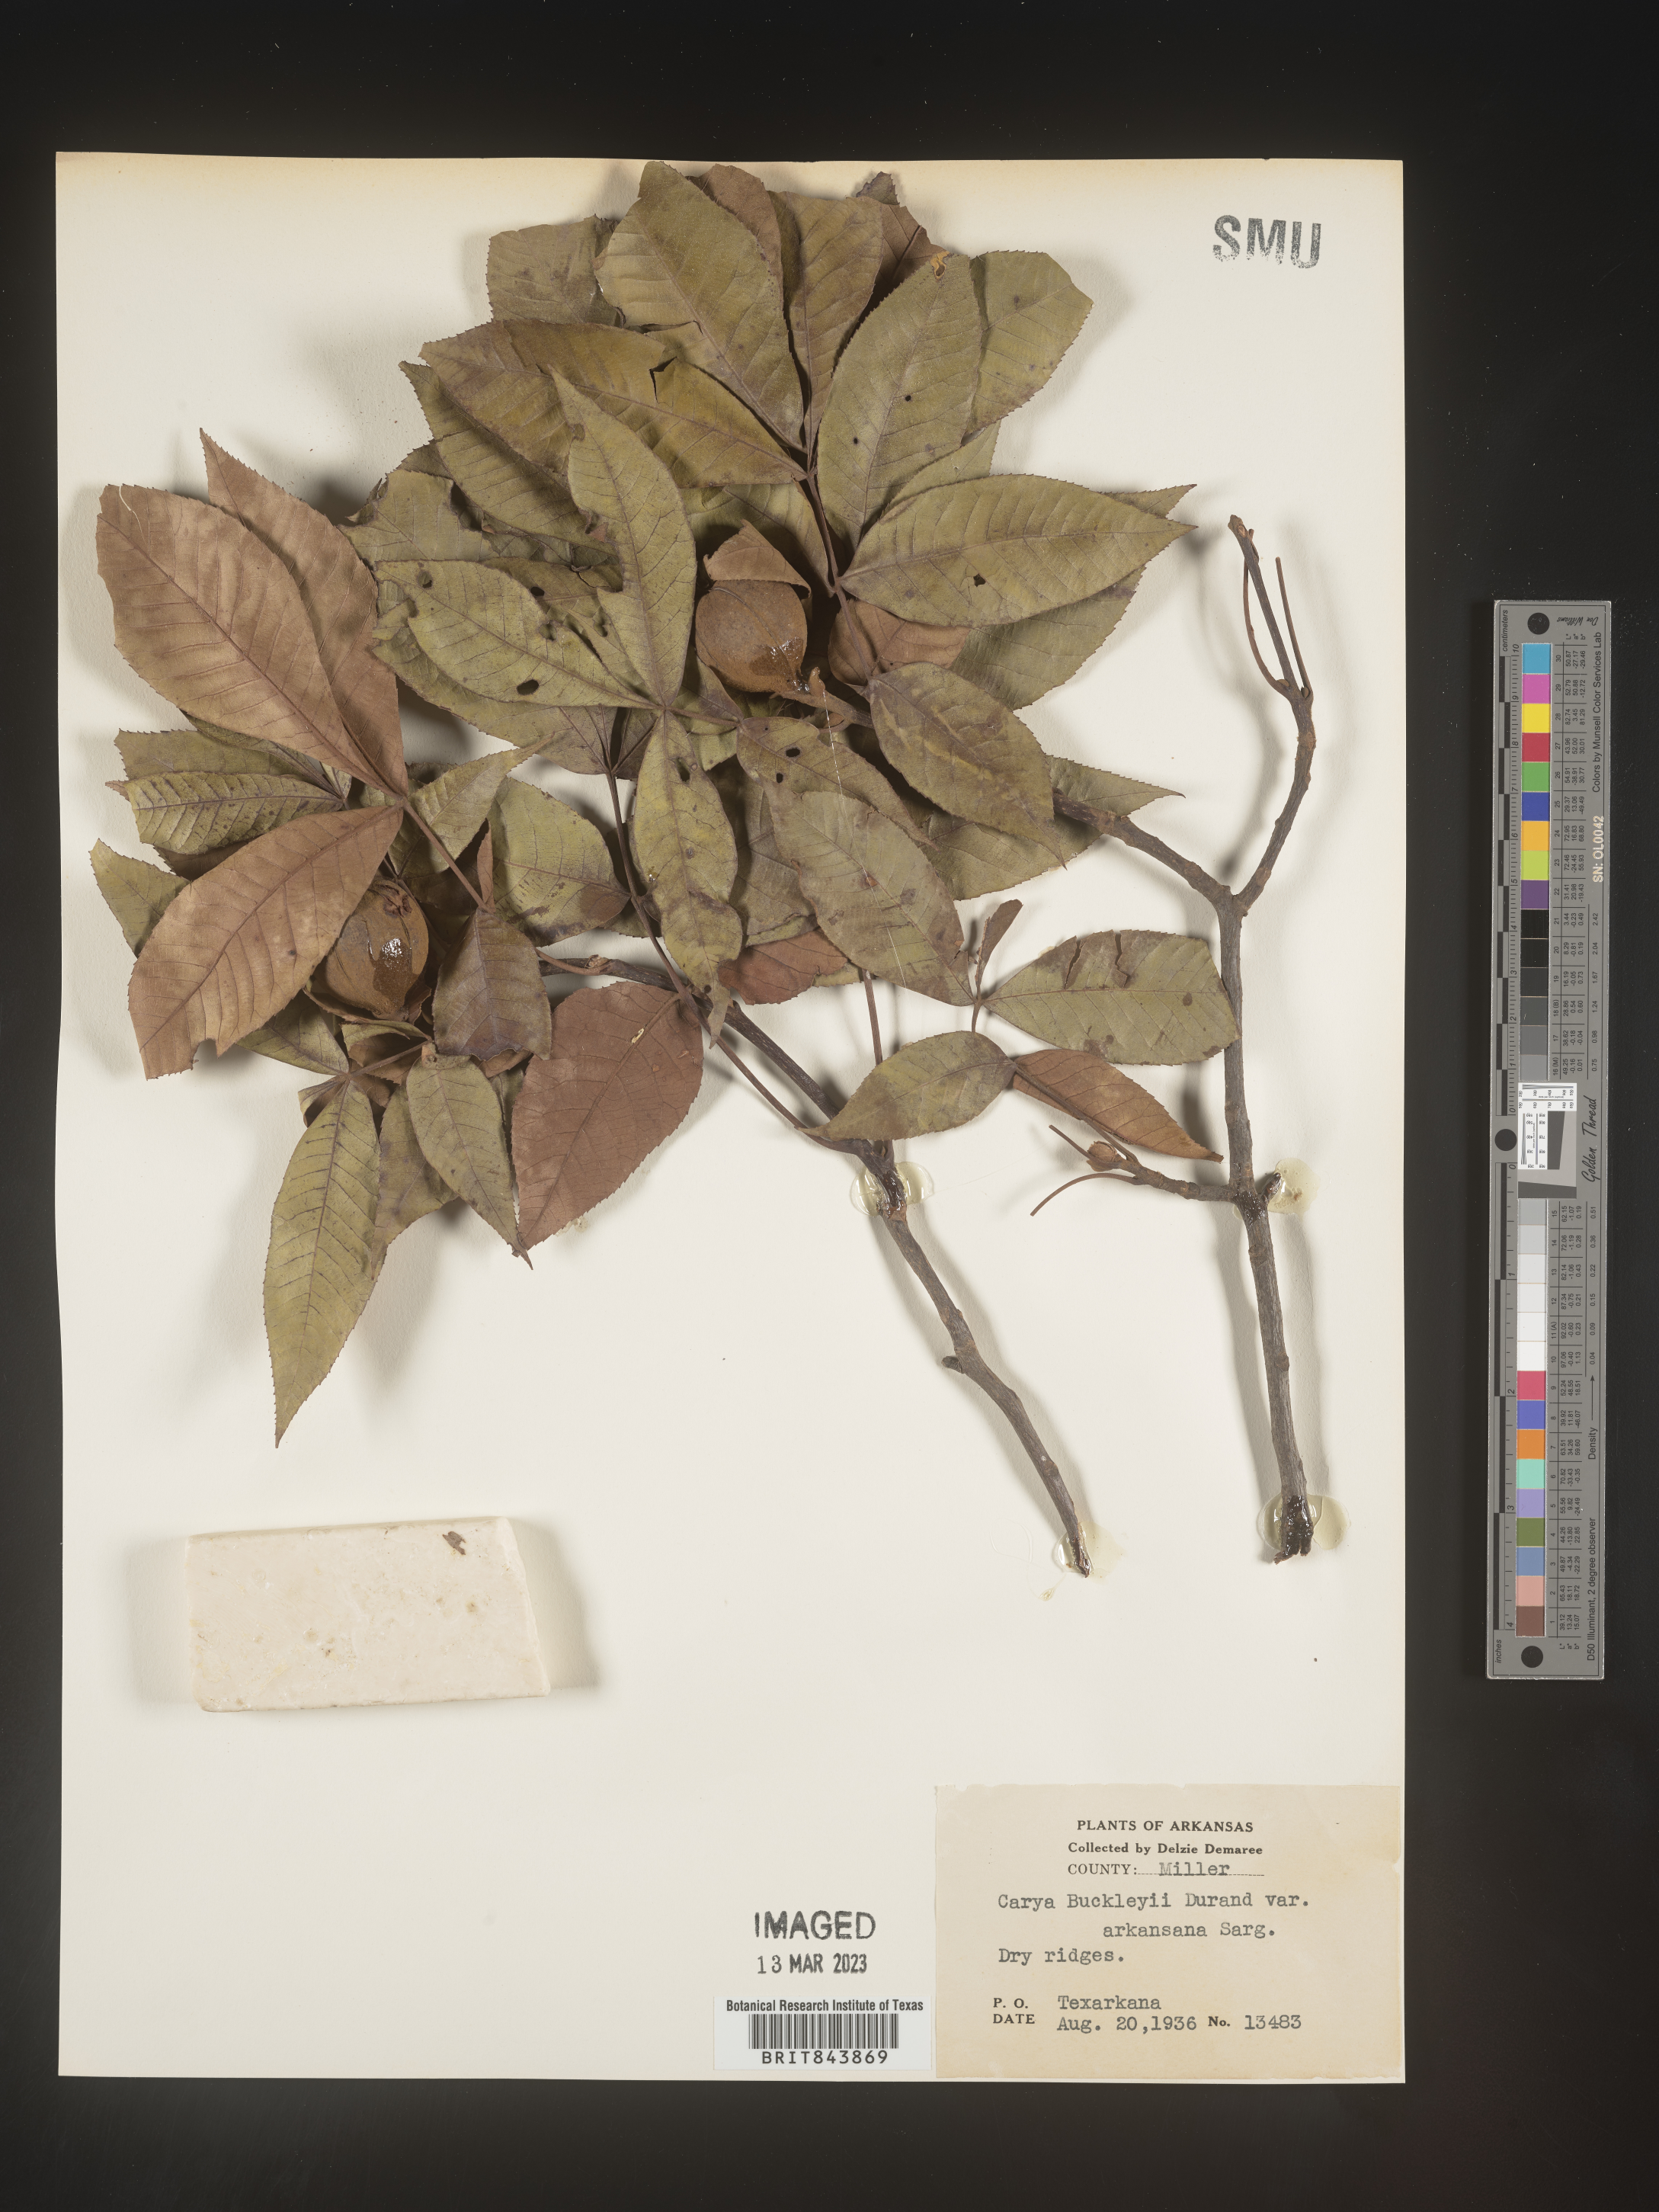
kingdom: Plantae
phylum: Tracheophyta
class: Magnoliopsida
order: Fagales
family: Juglandaceae
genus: Carya
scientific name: Carya texana
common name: Black hickory
